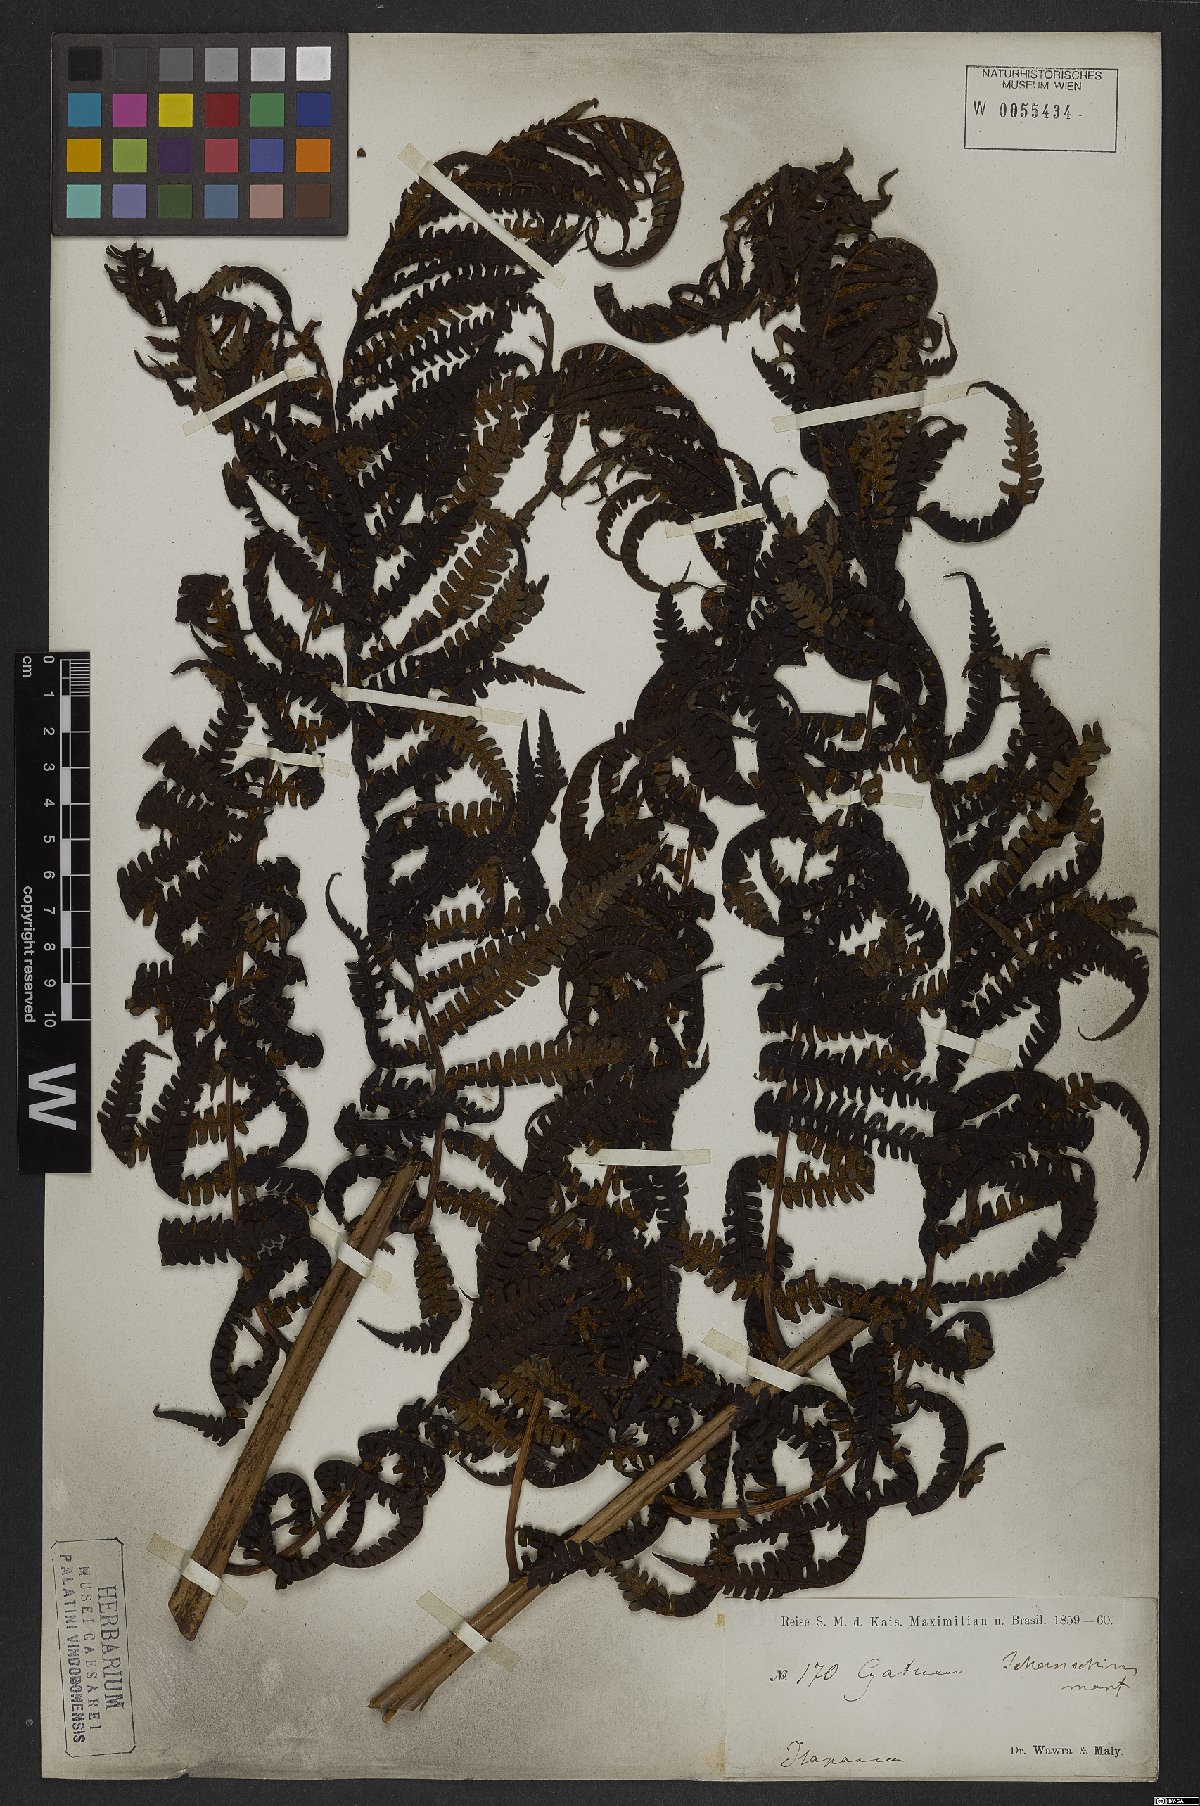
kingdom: Plantae
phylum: Tracheophyta
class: Polypodiopsida
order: Cyatheales
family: Cyatheaceae
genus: Cyathea
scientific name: Cyathea delgadii
